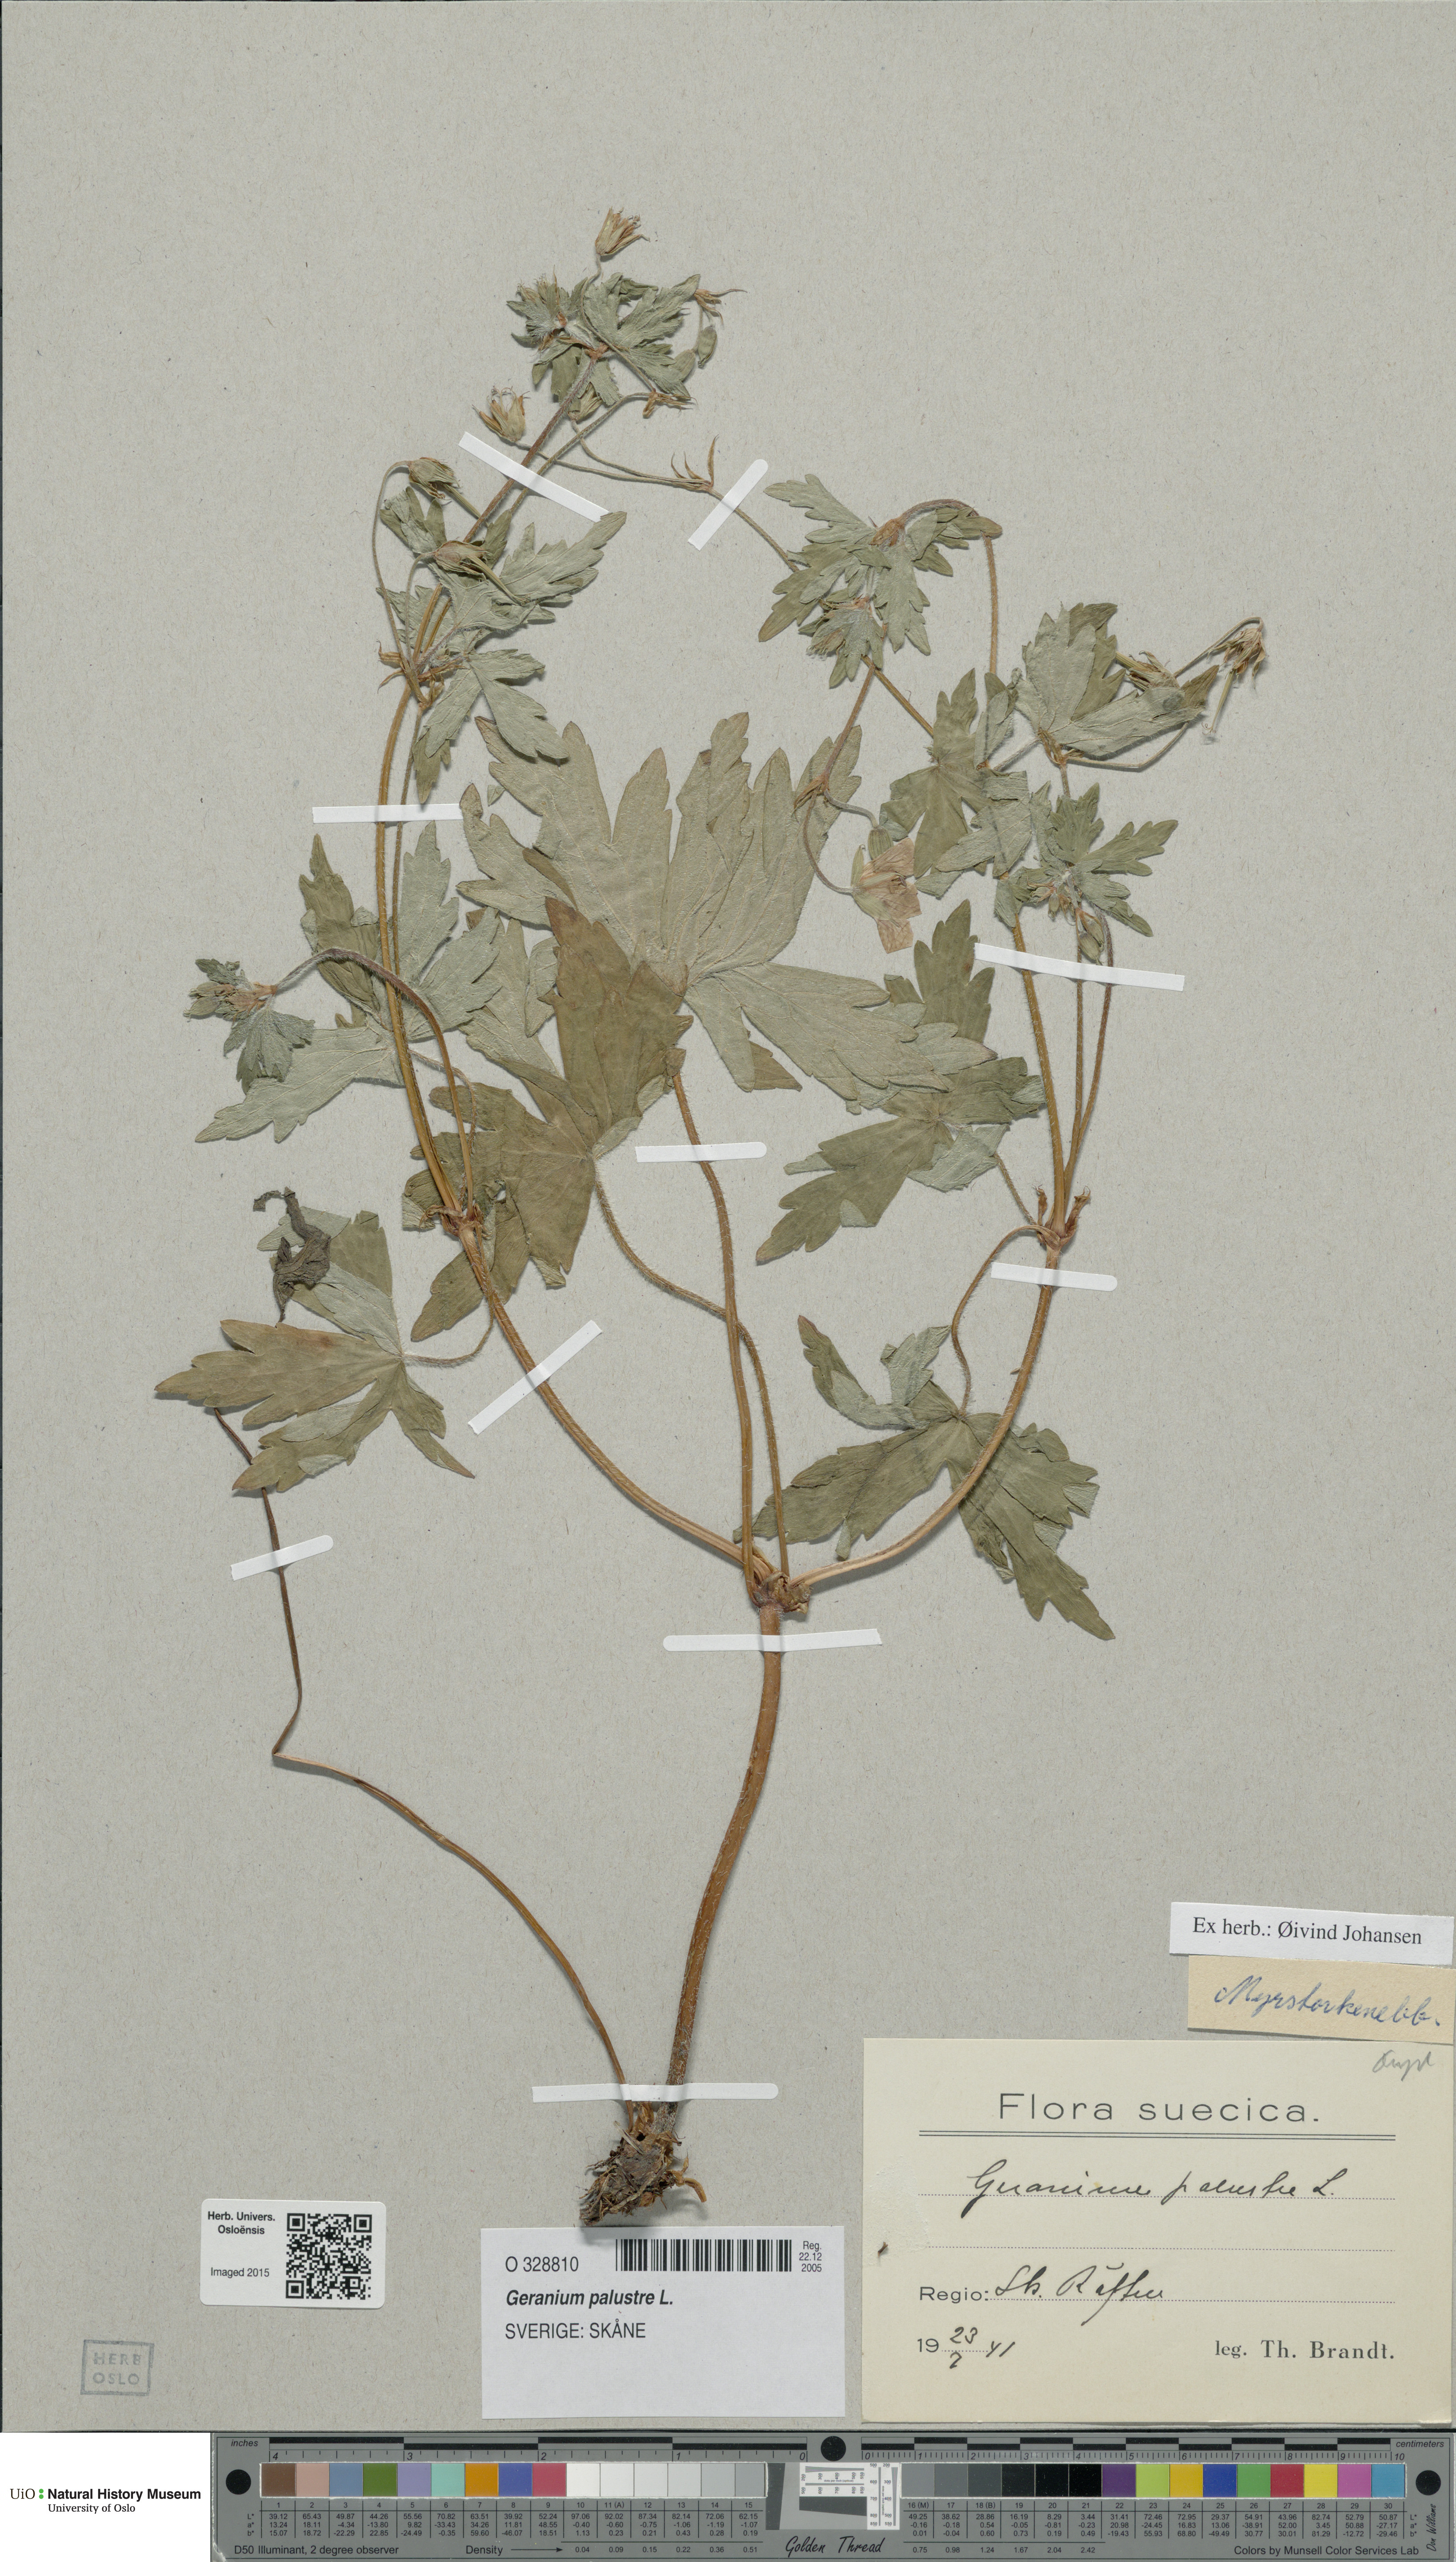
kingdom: Plantae
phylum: Tracheophyta
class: Magnoliopsida
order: Geraniales
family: Geraniaceae
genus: Geranium
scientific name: Geranium palustre
